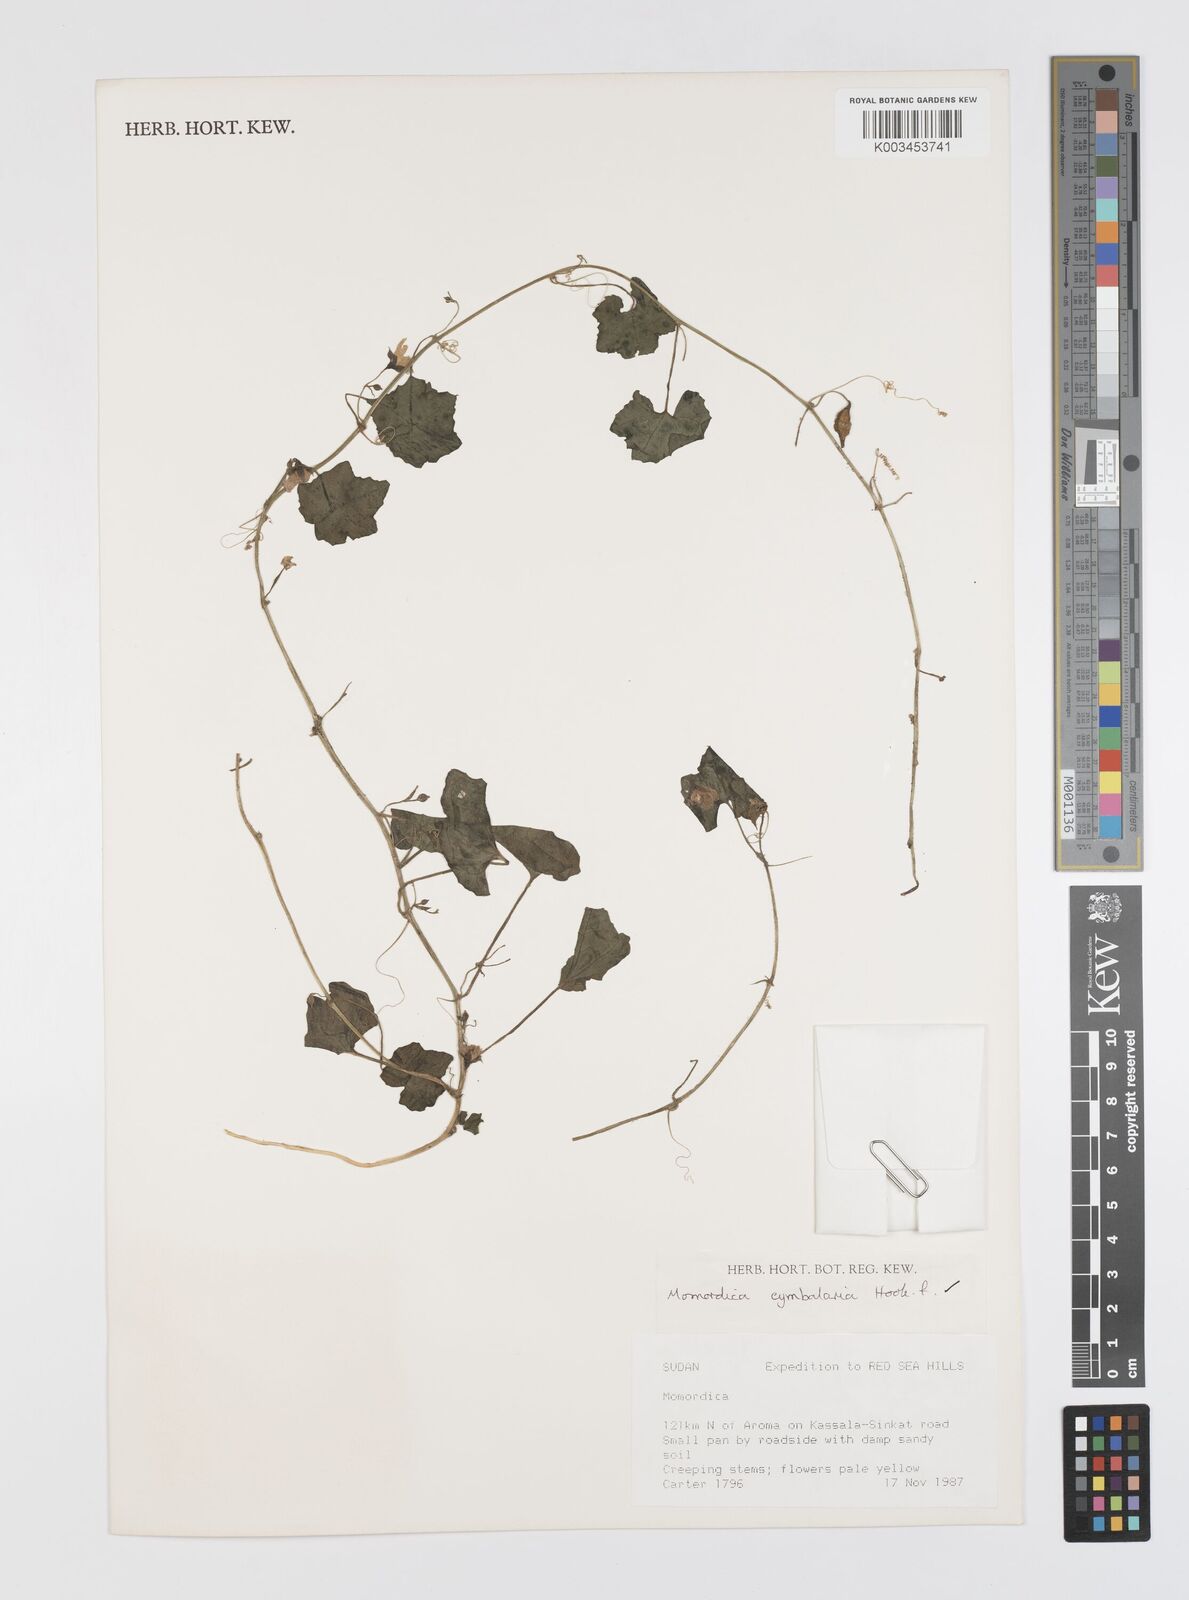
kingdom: Plantae
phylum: Tracheophyta
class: Magnoliopsida
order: Cucurbitales
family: Cucurbitaceae
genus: Momordica
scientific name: Momordica multiflora
